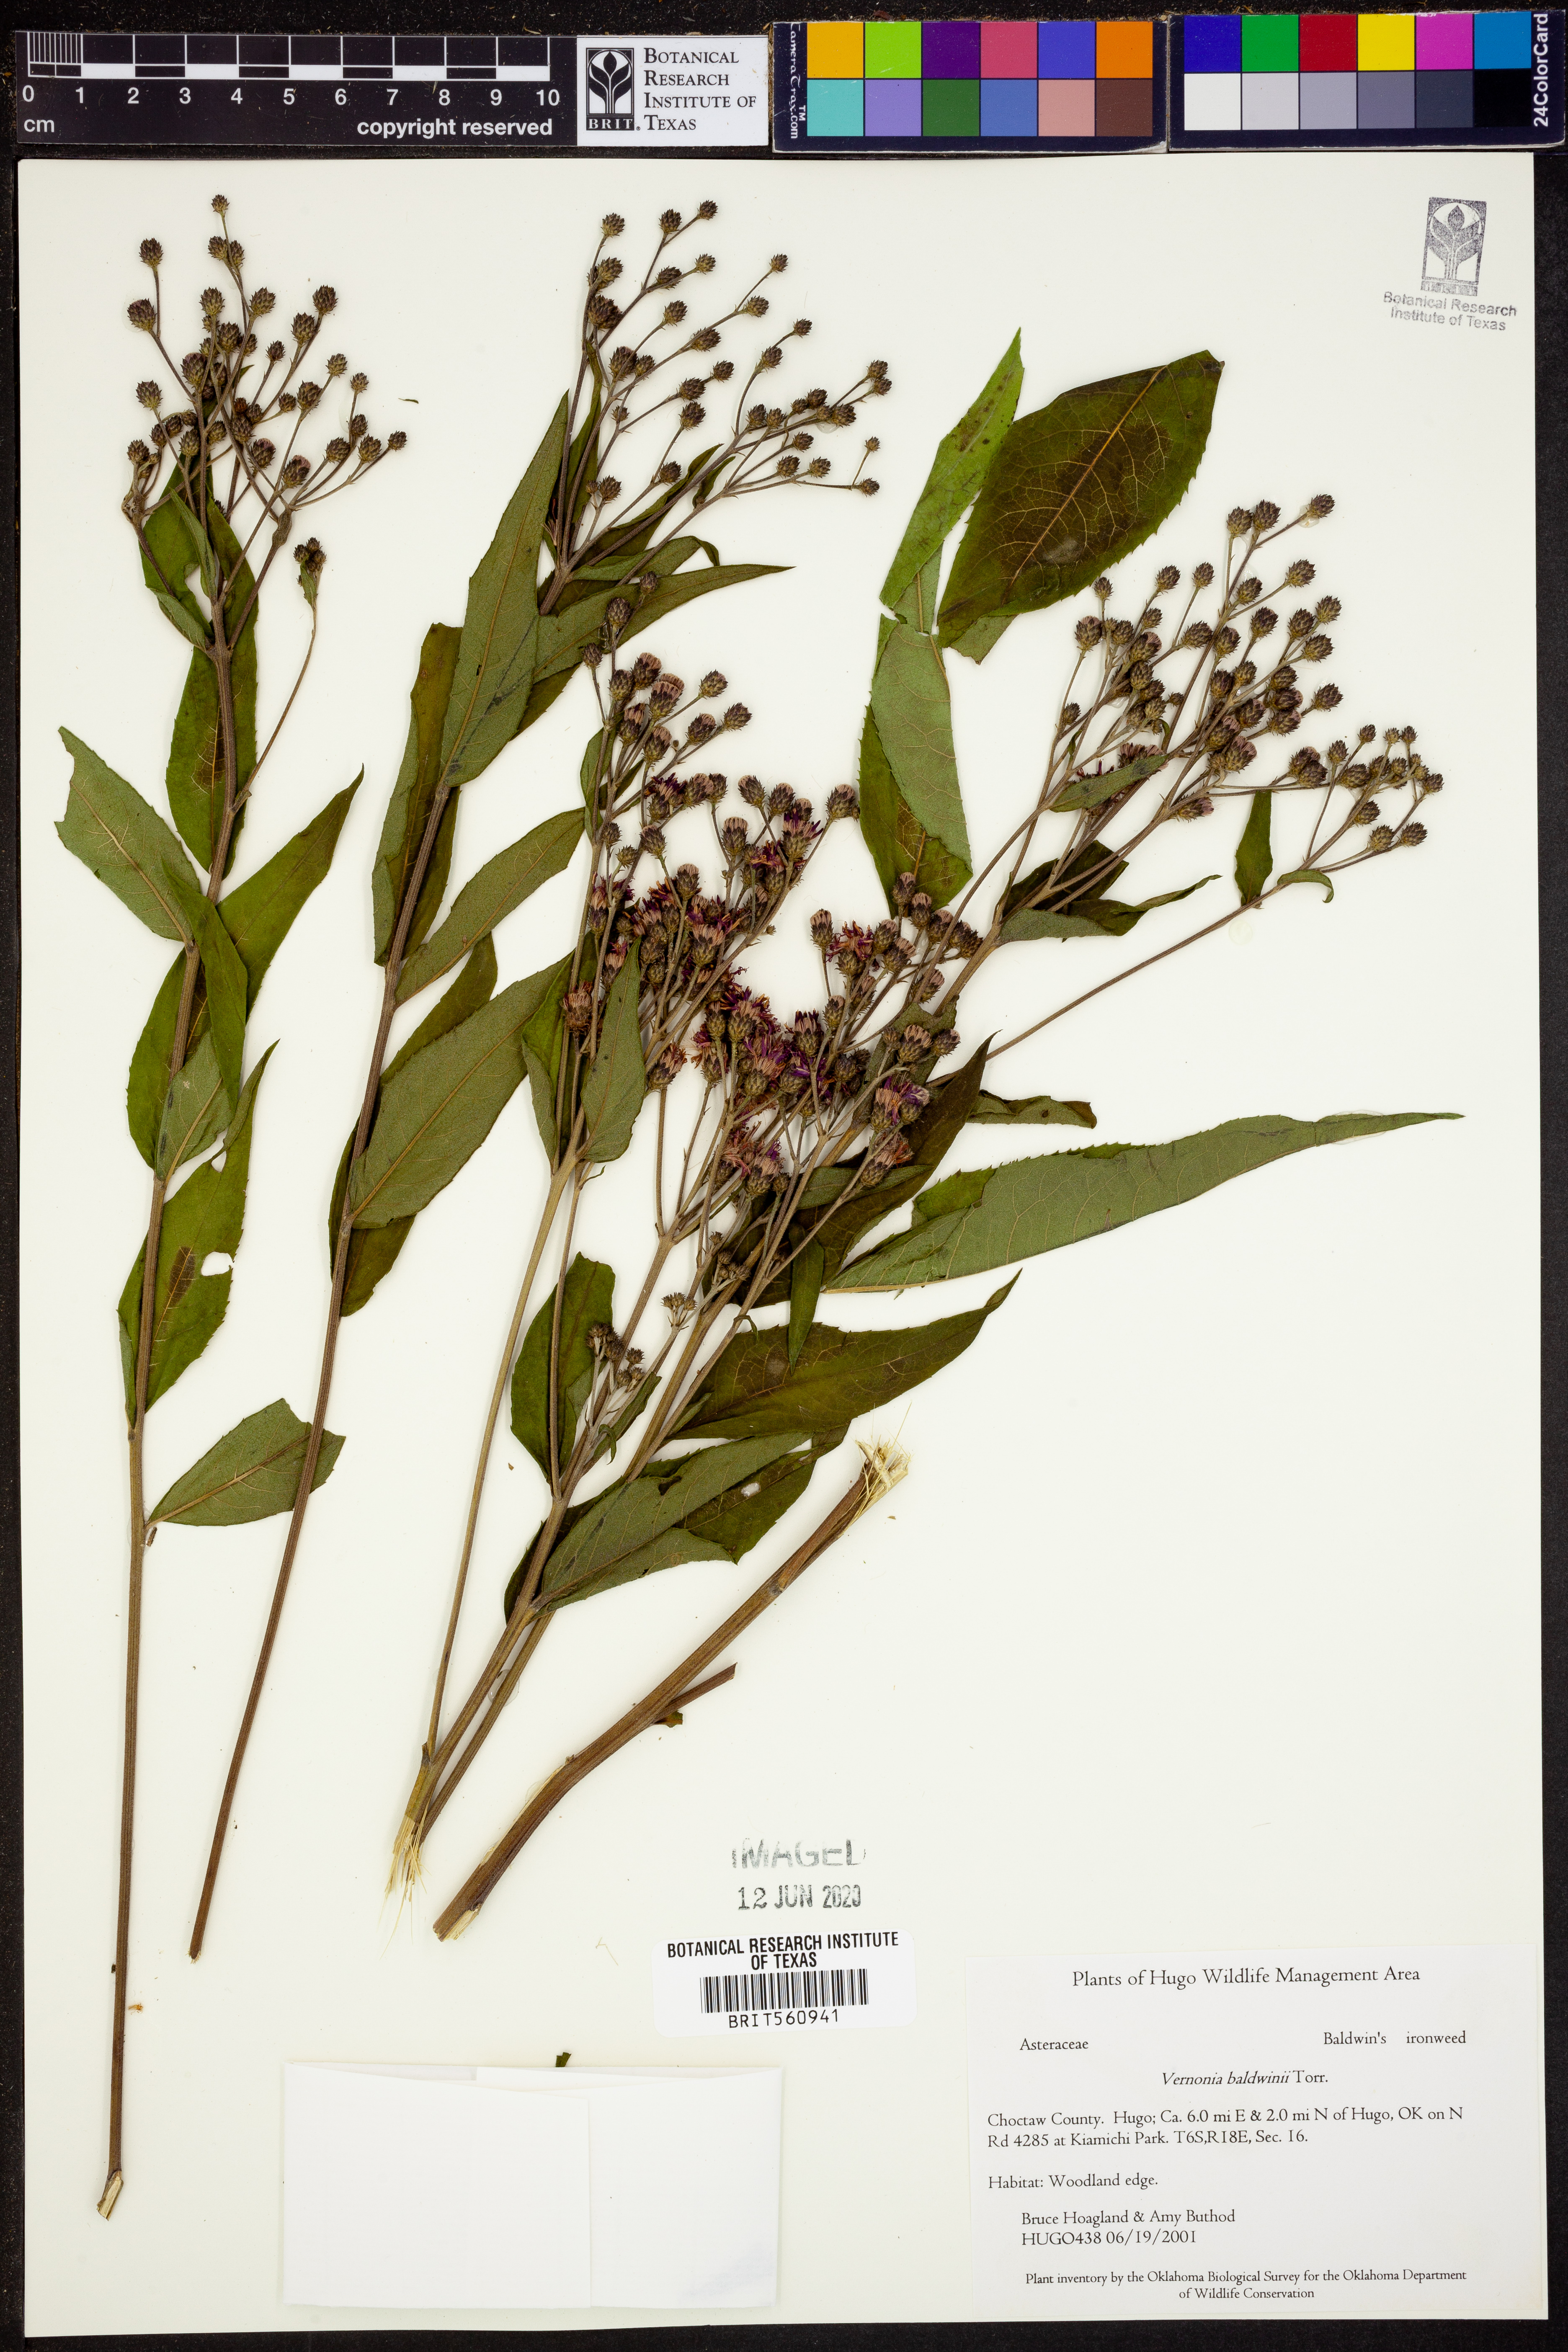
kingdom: Plantae
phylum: Tracheophyta
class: Magnoliopsida
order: Asterales
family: Asteraceae
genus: Vernonia
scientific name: Vernonia baldwinii
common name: Western ironweed
